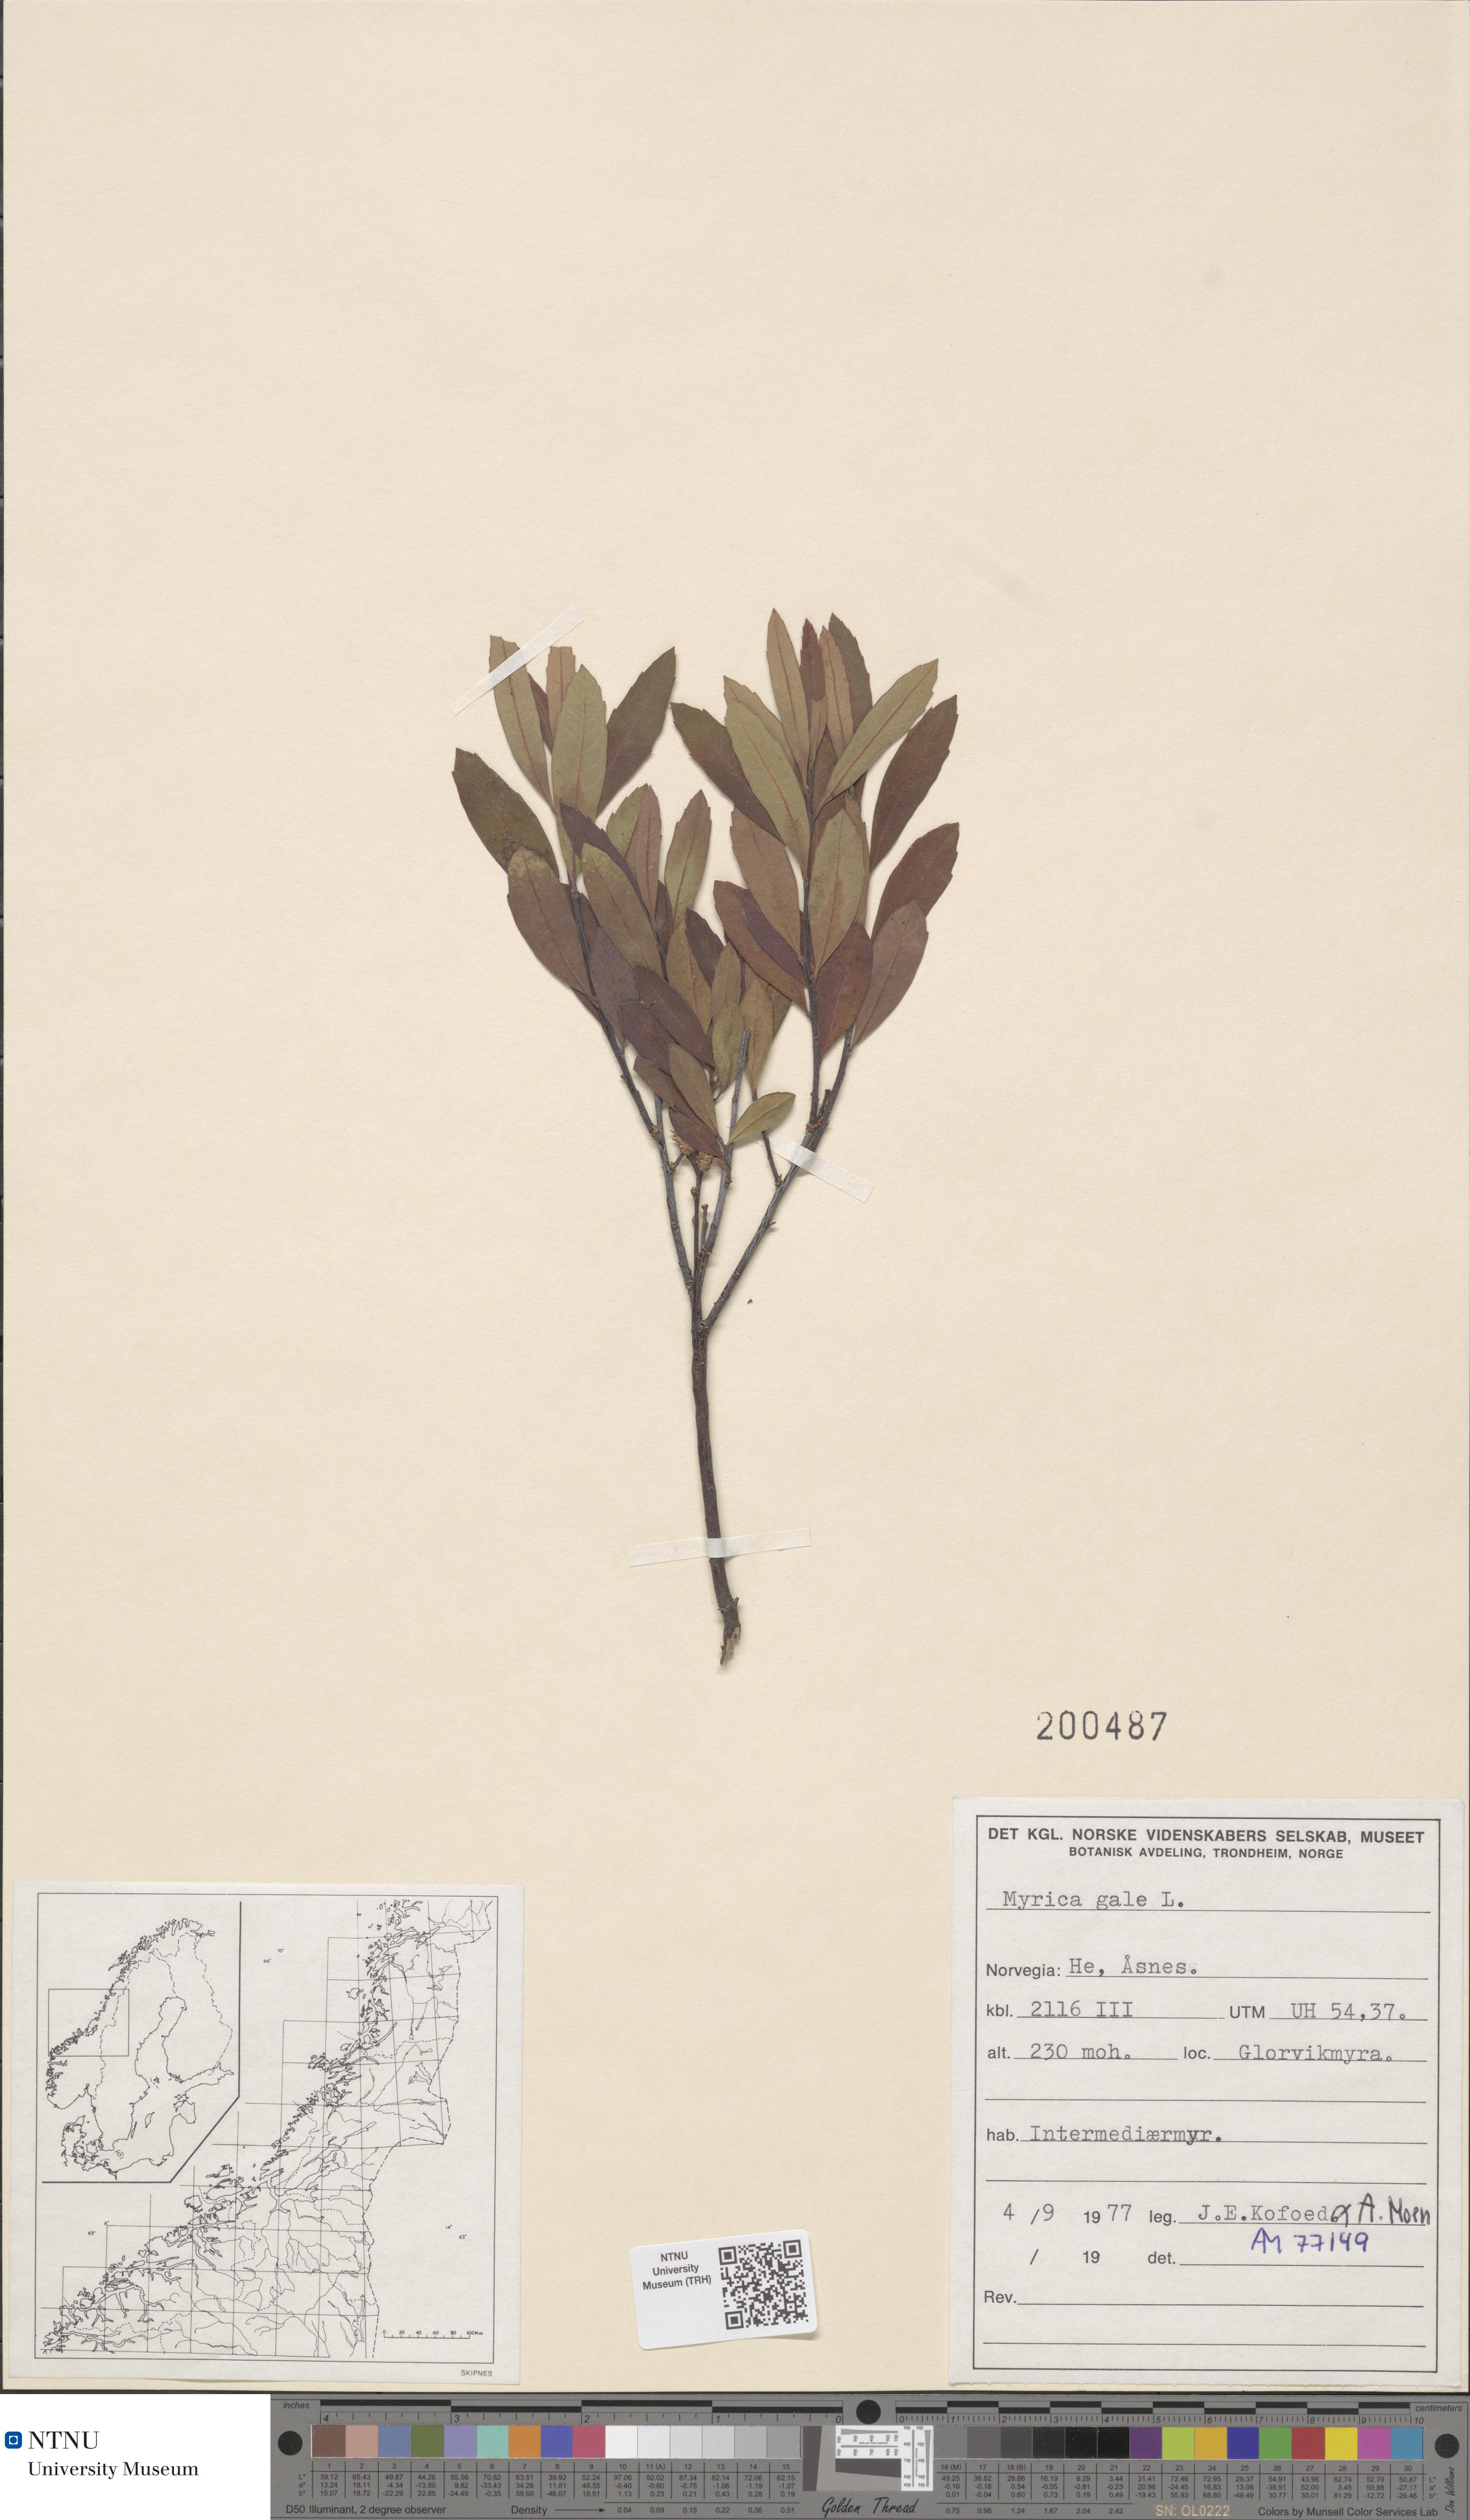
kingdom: Plantae
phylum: Tracheophyta
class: Magnoliopsida
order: Fagales
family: Myricaceae
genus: Myrica
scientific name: Myrica gale
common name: Sweet gale
